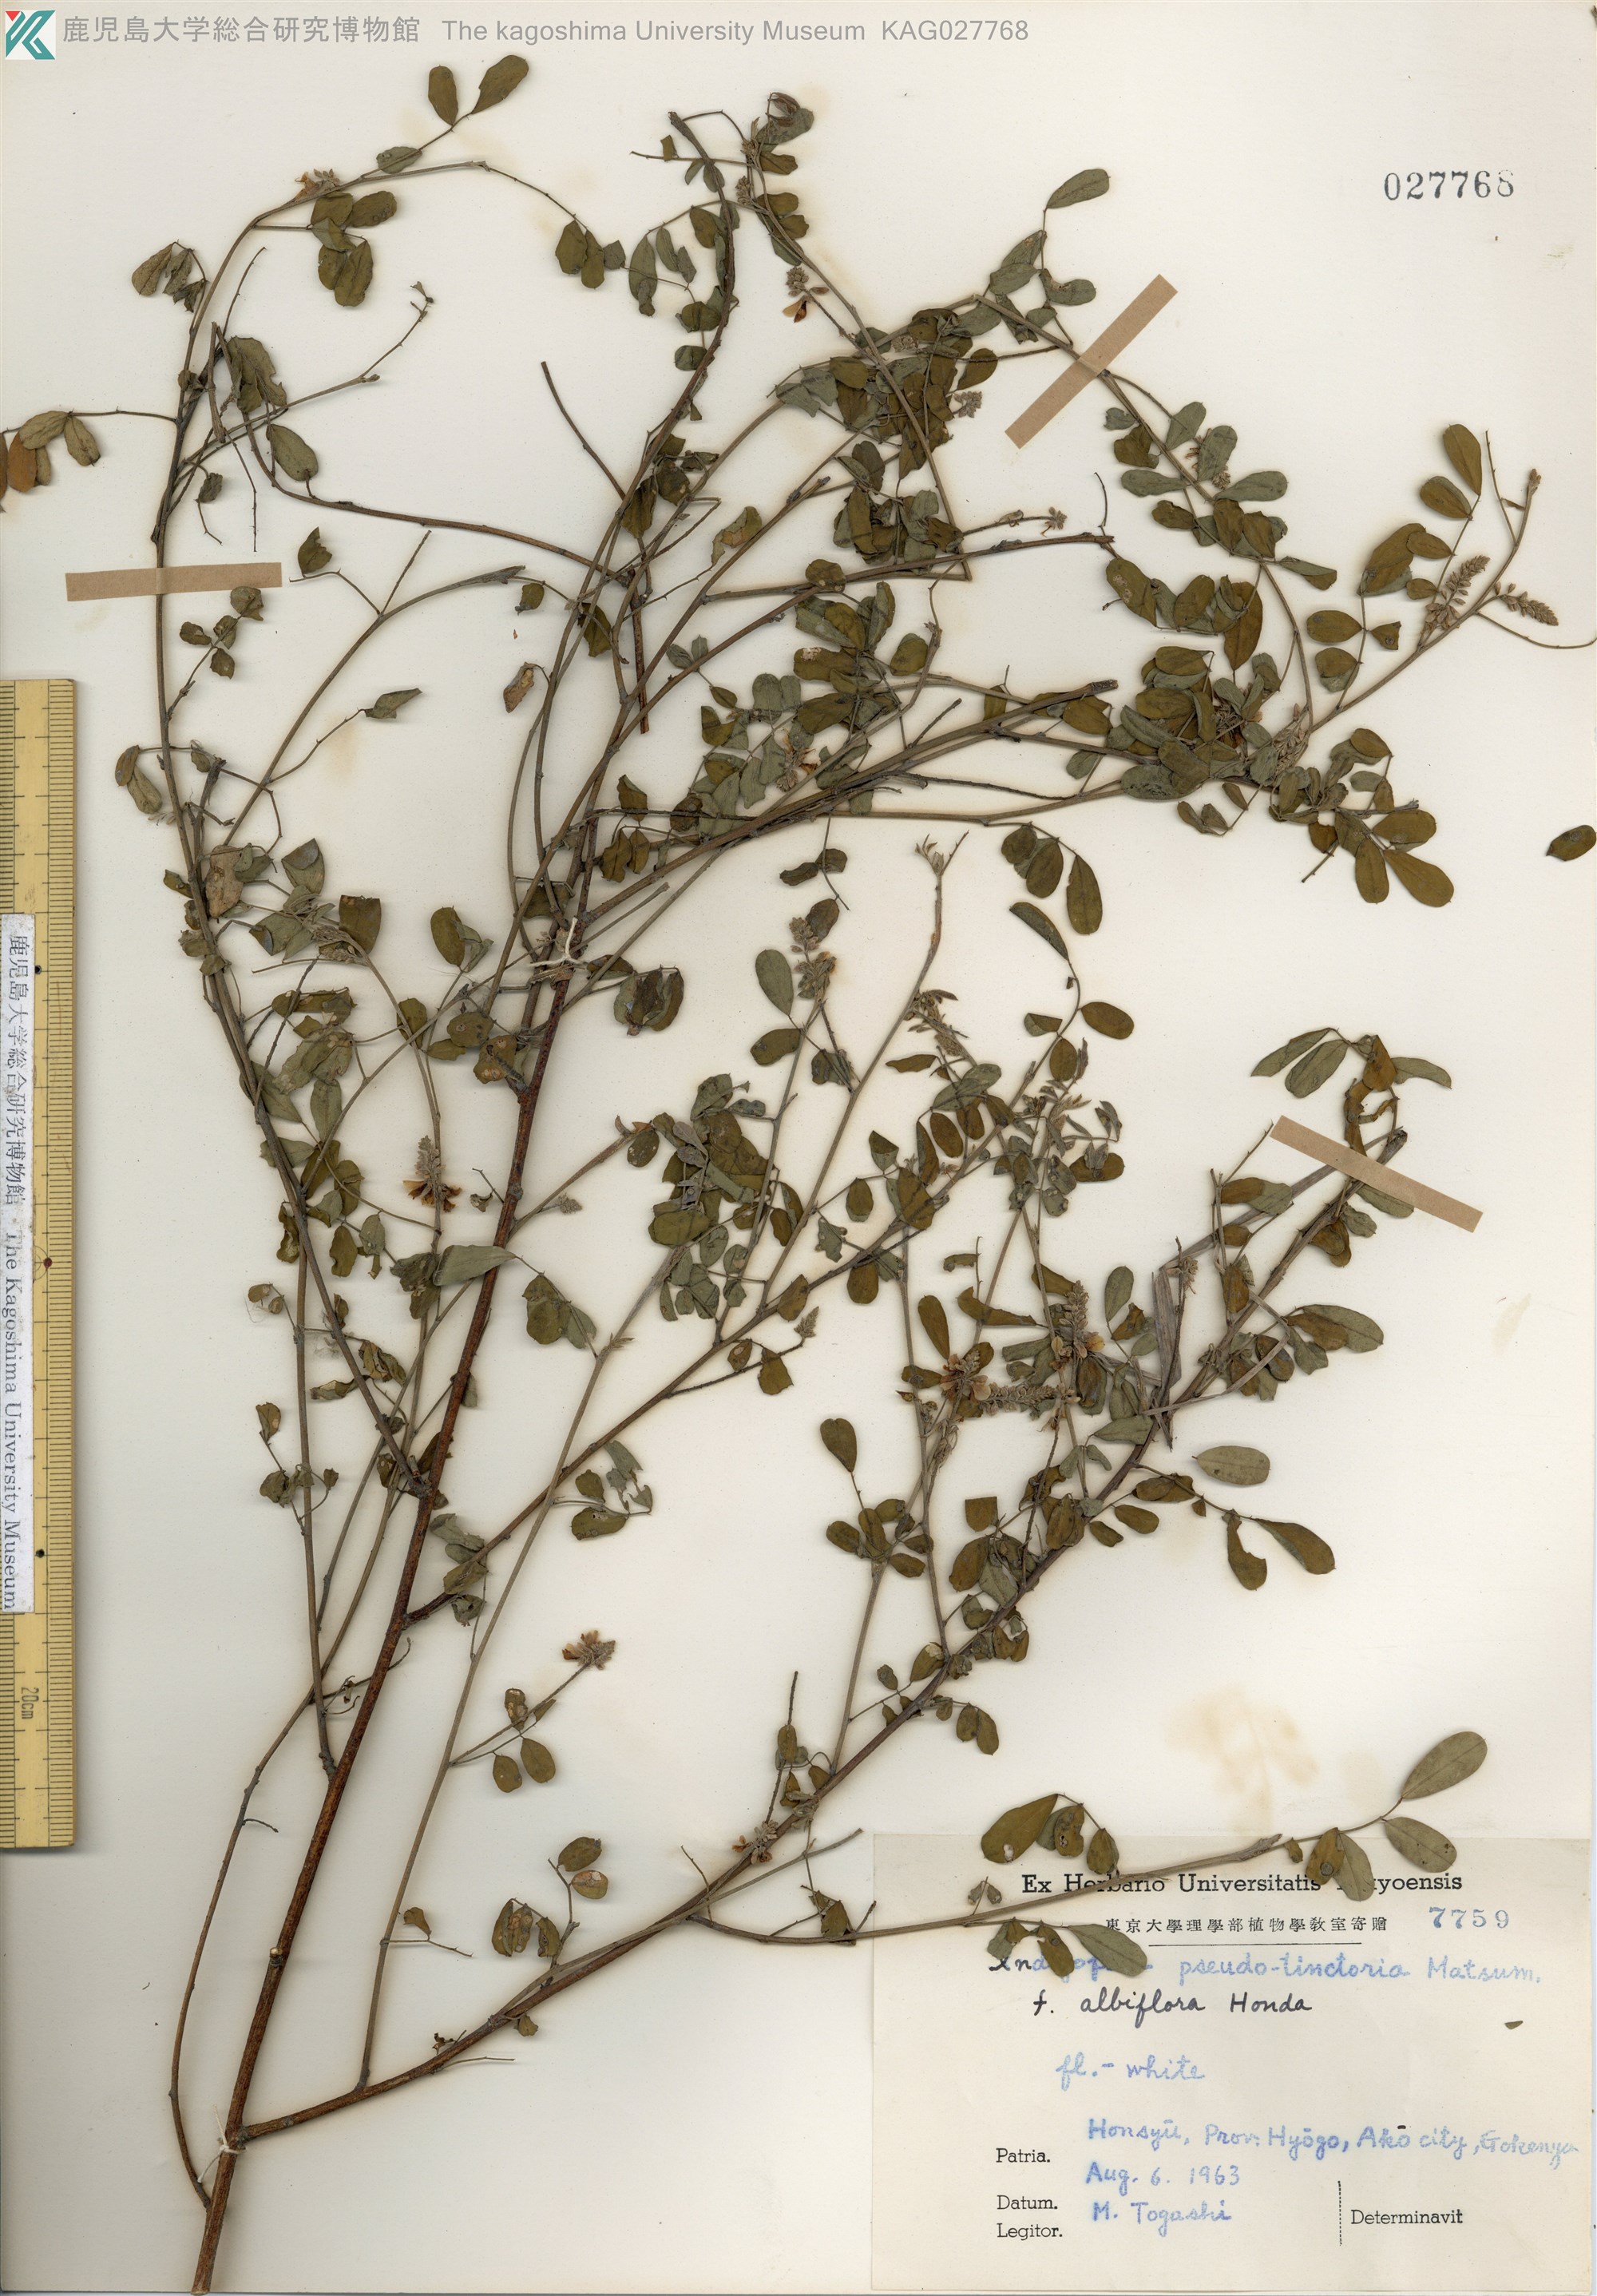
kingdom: Plantae
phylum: Tracheophyta
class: Magnoliopsida
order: Fabales
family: Fabaceae
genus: Indigofera
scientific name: Indigofera bungeana
